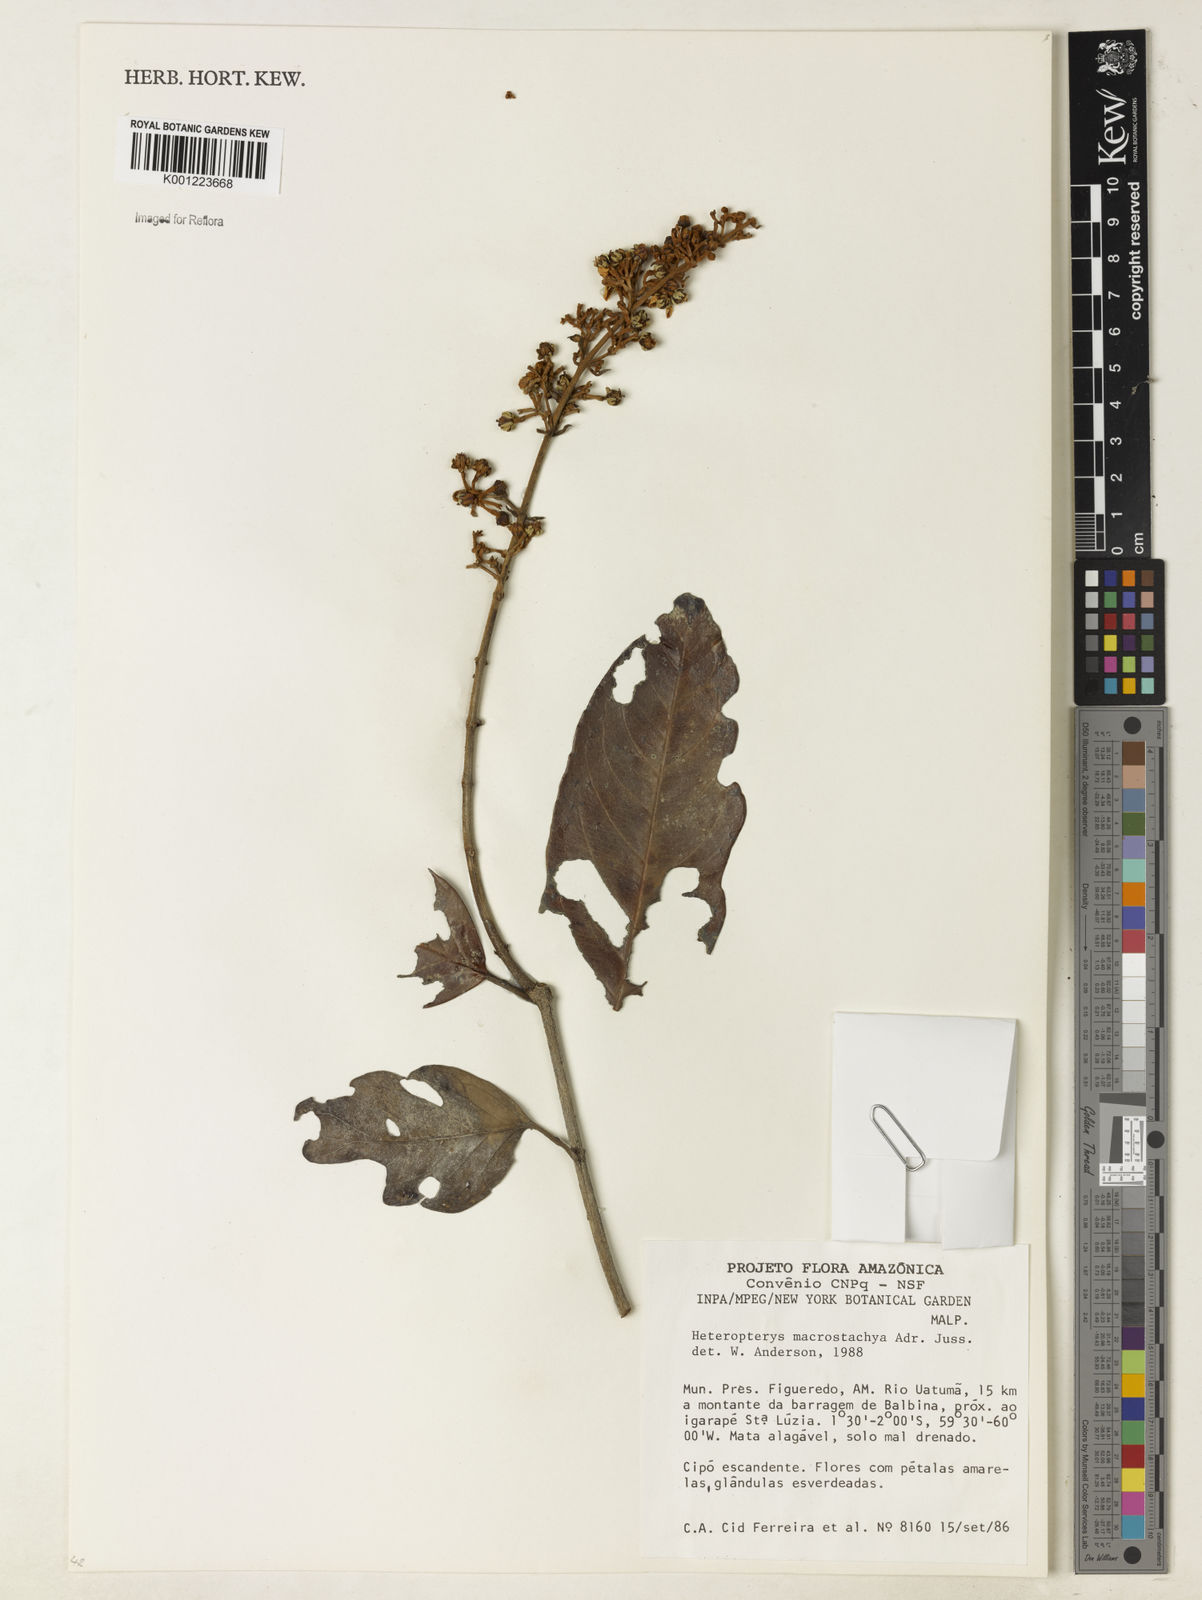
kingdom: Plantae
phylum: Tracheophyta
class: Magnoliopsida
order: Malpighiales
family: Malpighiaceae
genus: Heteropterys
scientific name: Heteropterys macrostachya
